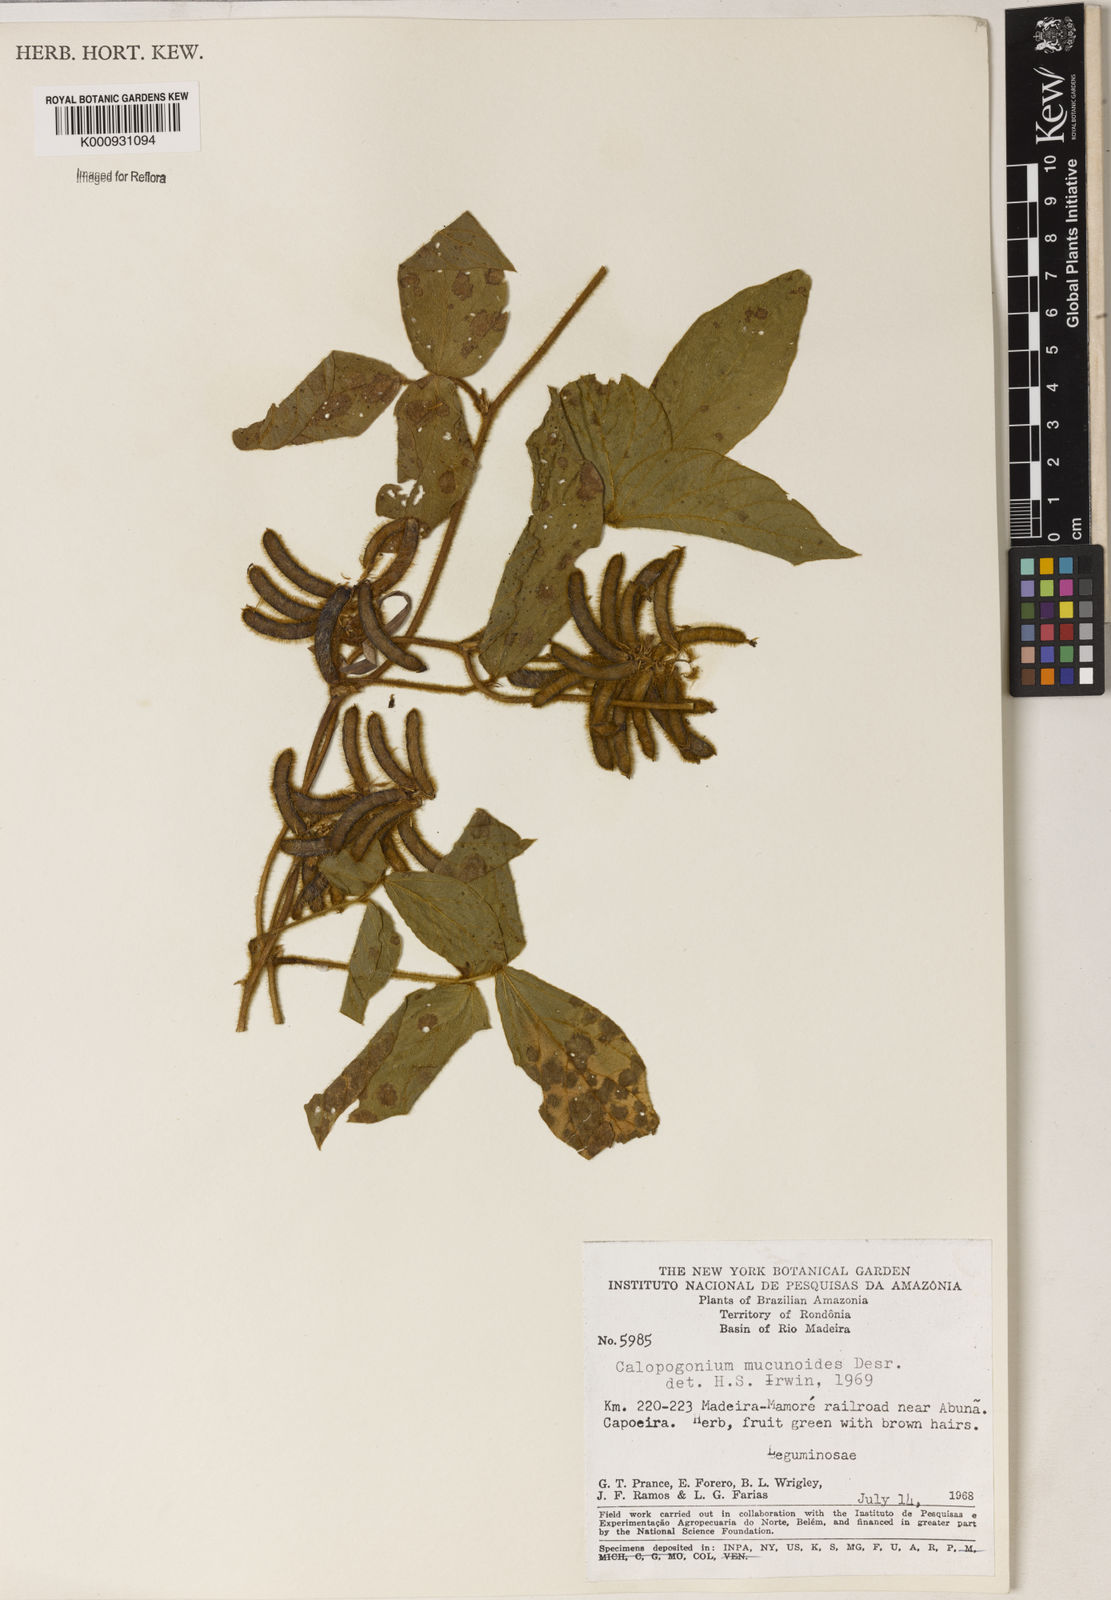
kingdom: Plantae
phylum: Tracheophyta
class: Magnoliopsida
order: Fabales
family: Fabaceae
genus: Calopogonium
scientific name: Calopogonium mucunoides
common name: Calopo
